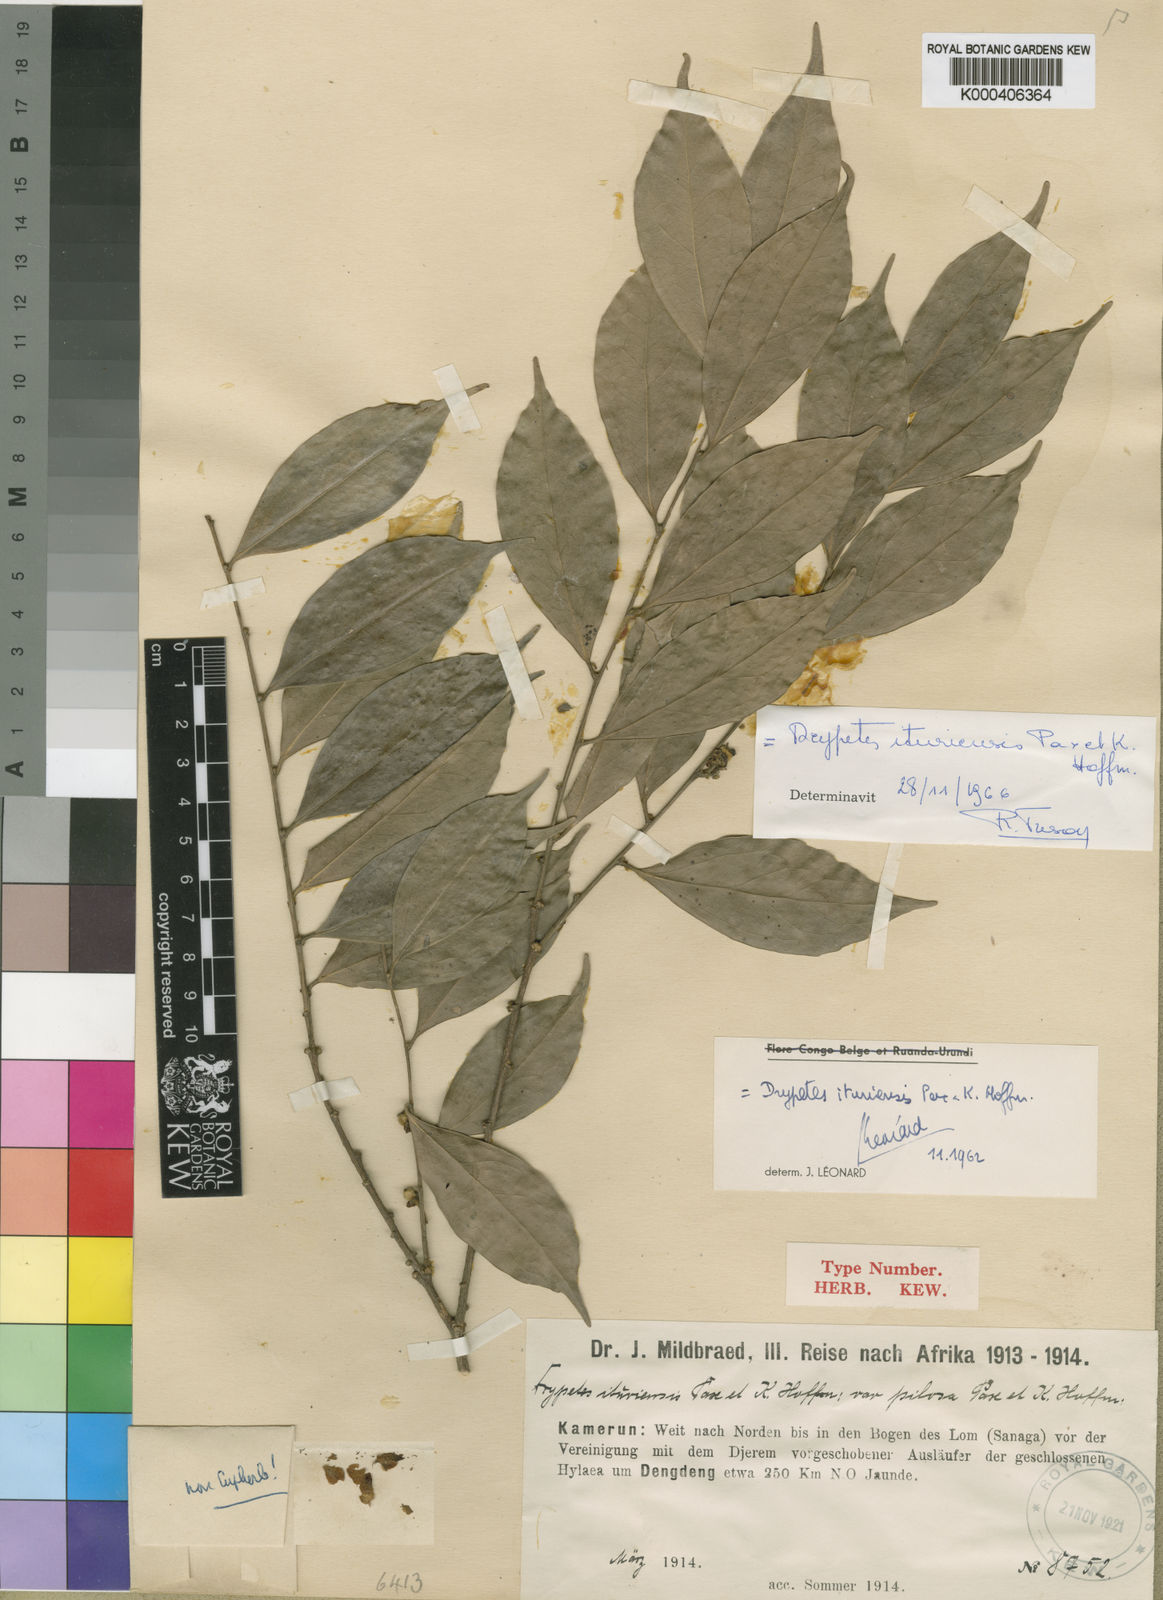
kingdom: Plantae
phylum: Tracheophyta
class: Magnoliopsida
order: Malpighiales
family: Putranjivaceae
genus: Drypetes
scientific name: Drypetes ituriensis
